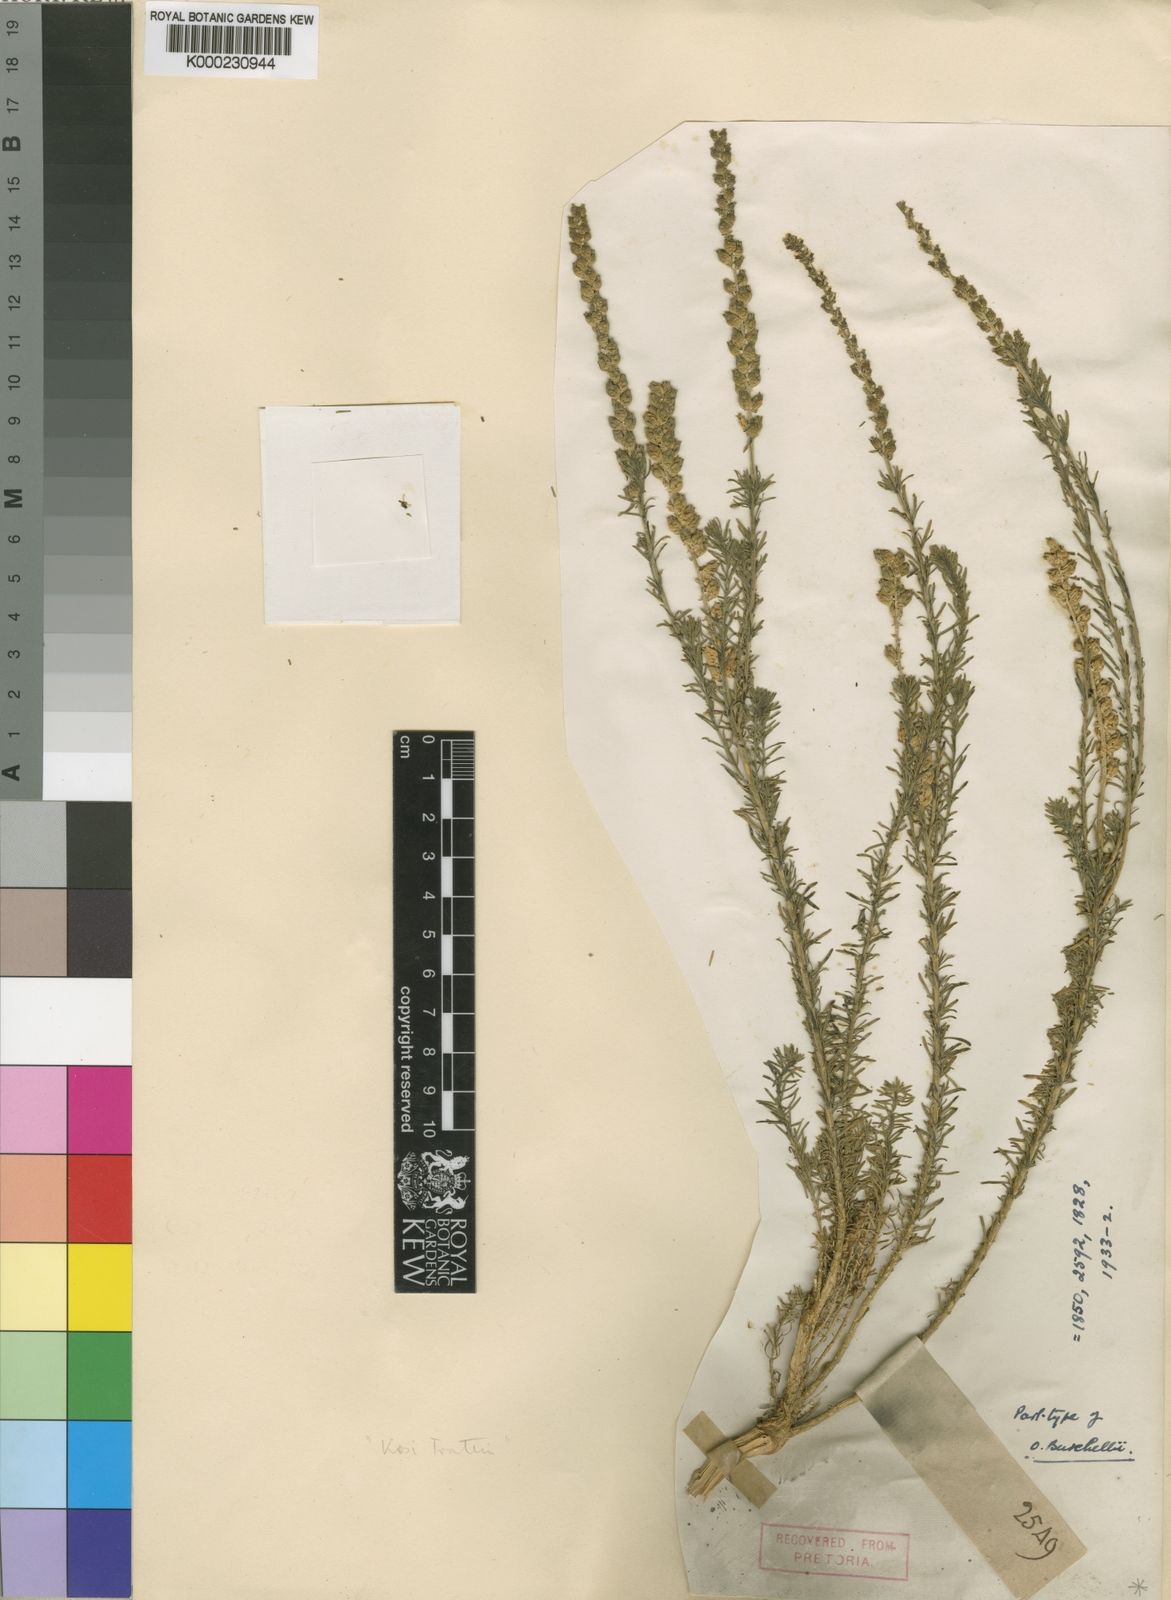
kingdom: Plantae
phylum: Tracheophyta
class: Magnoliopsida
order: Brassicales
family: Resedaceae
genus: Oligomeris
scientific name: Oligomeris dipetala
